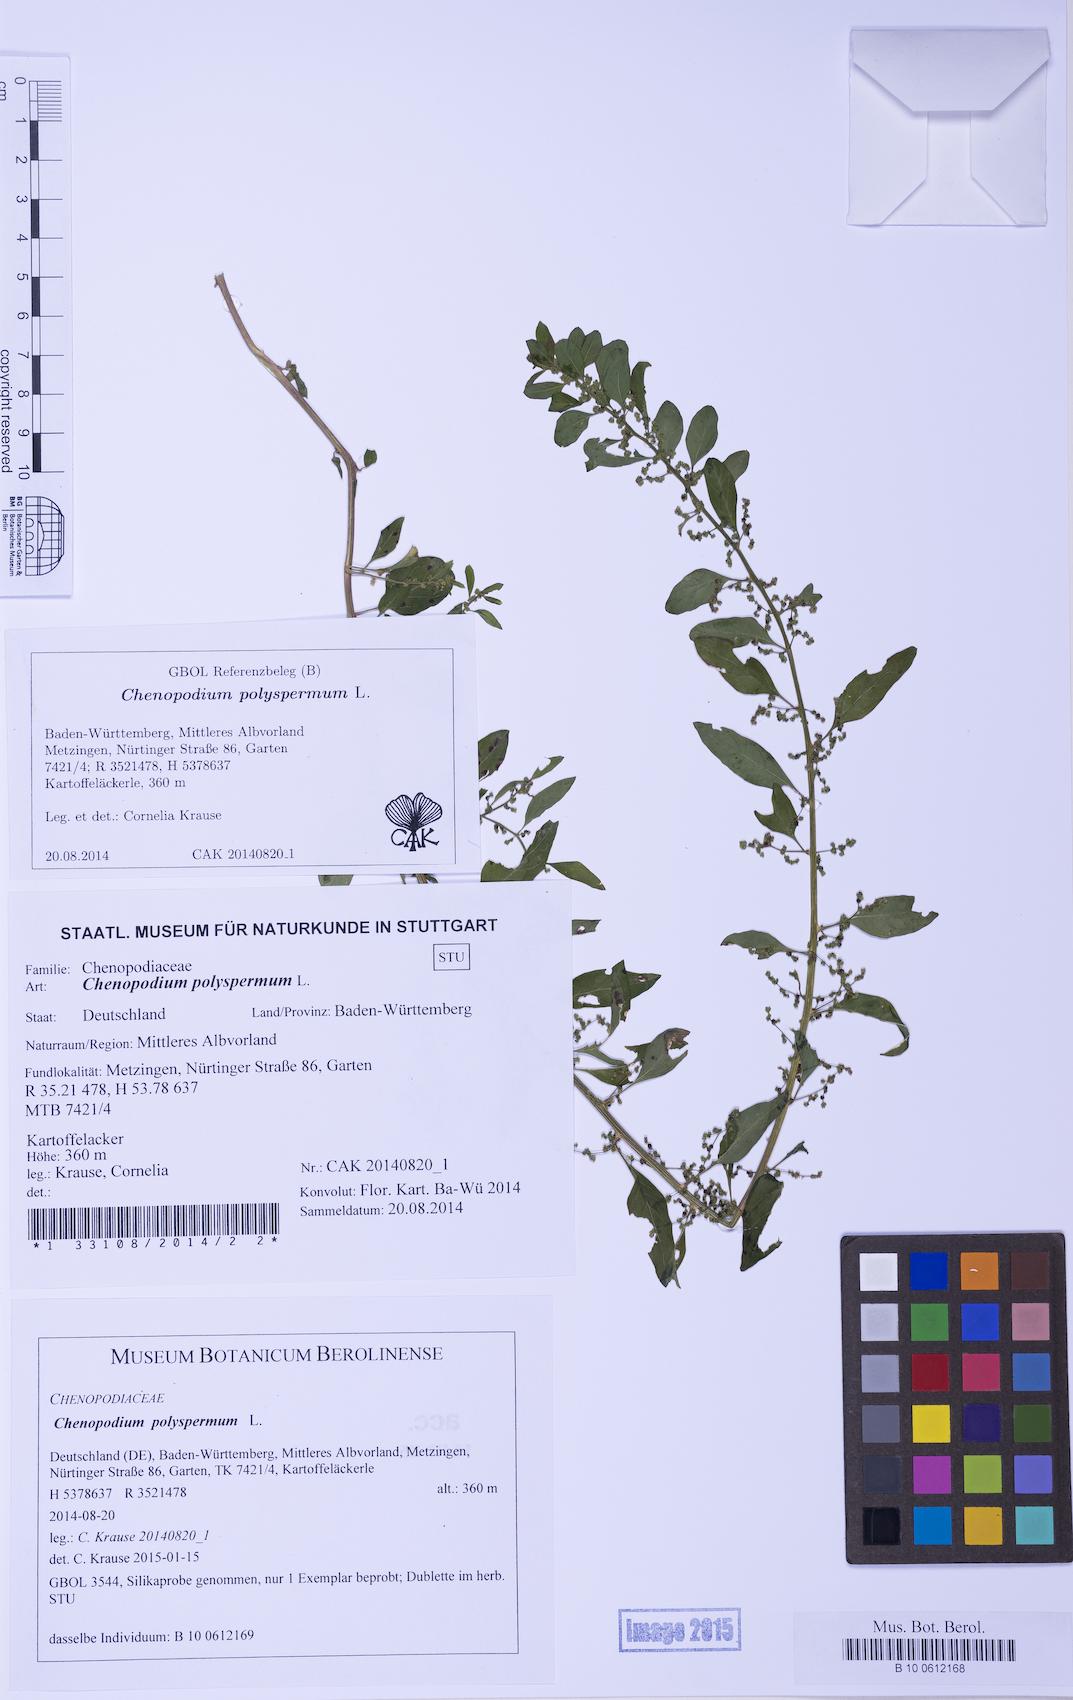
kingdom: Plantae
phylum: Tracheophyta
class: Magnoliopsida
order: Caryophyllales
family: Amaranthaceae
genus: Lipandra
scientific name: Lipandra polysperma
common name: Many-seed goosefoot
